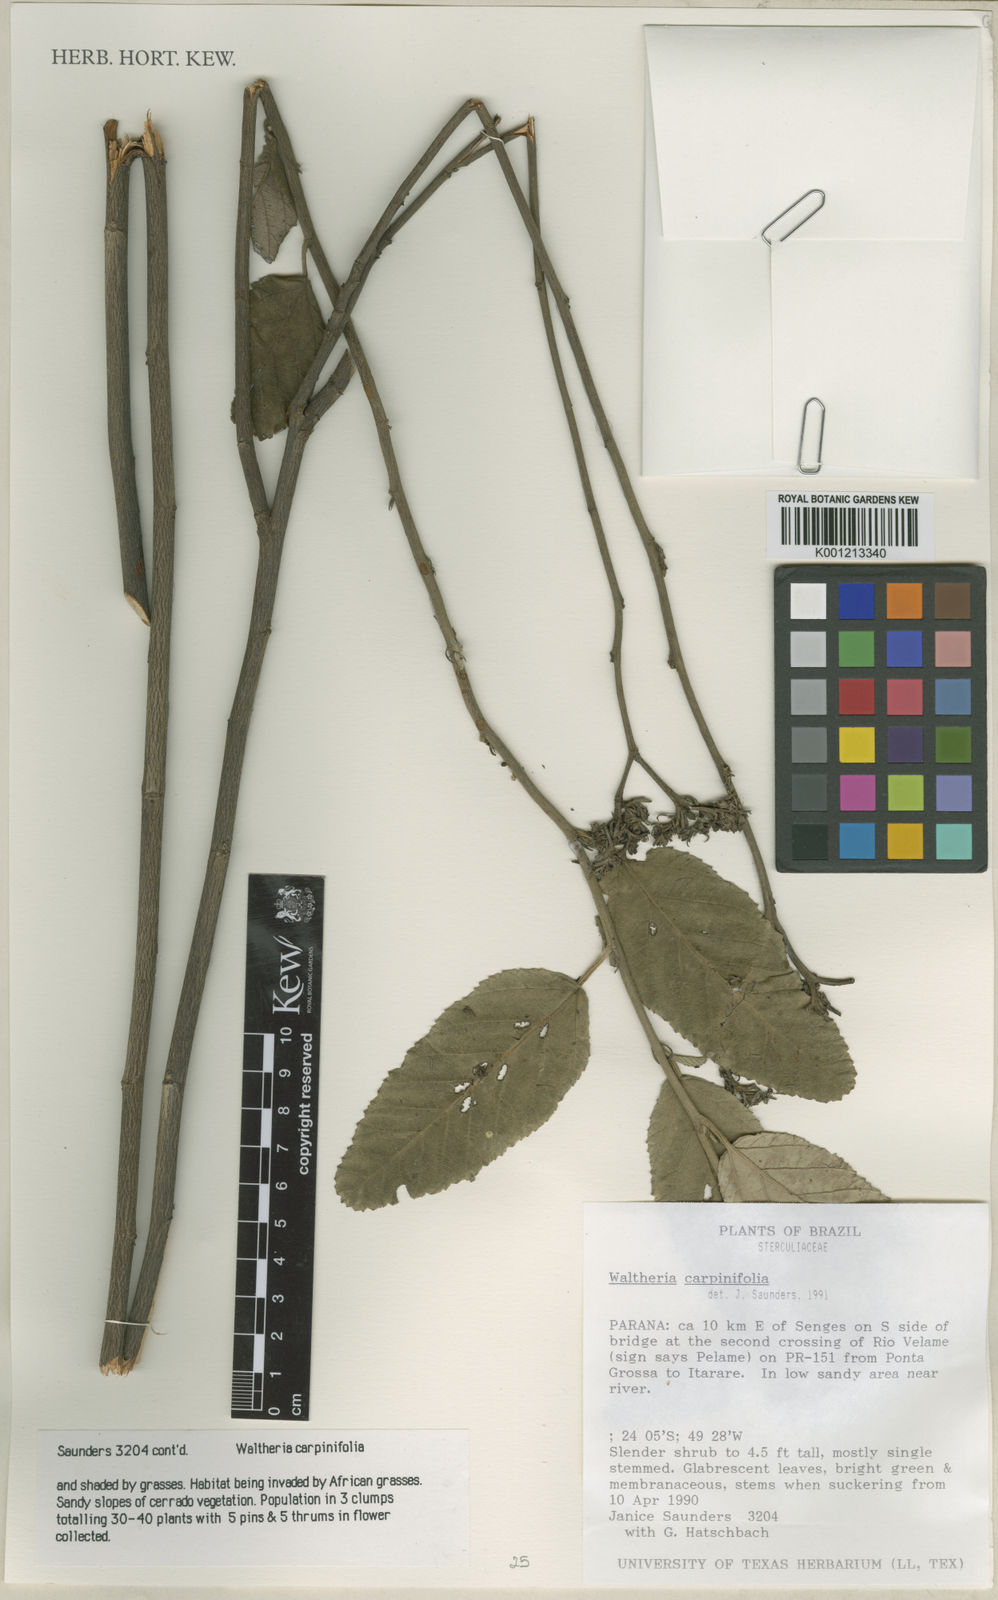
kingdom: Plantae
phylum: Tracheophyta
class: Magnoliopsida
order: Malvales
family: Malvaceae
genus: Waltheria
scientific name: Waltheria carpinifolia
